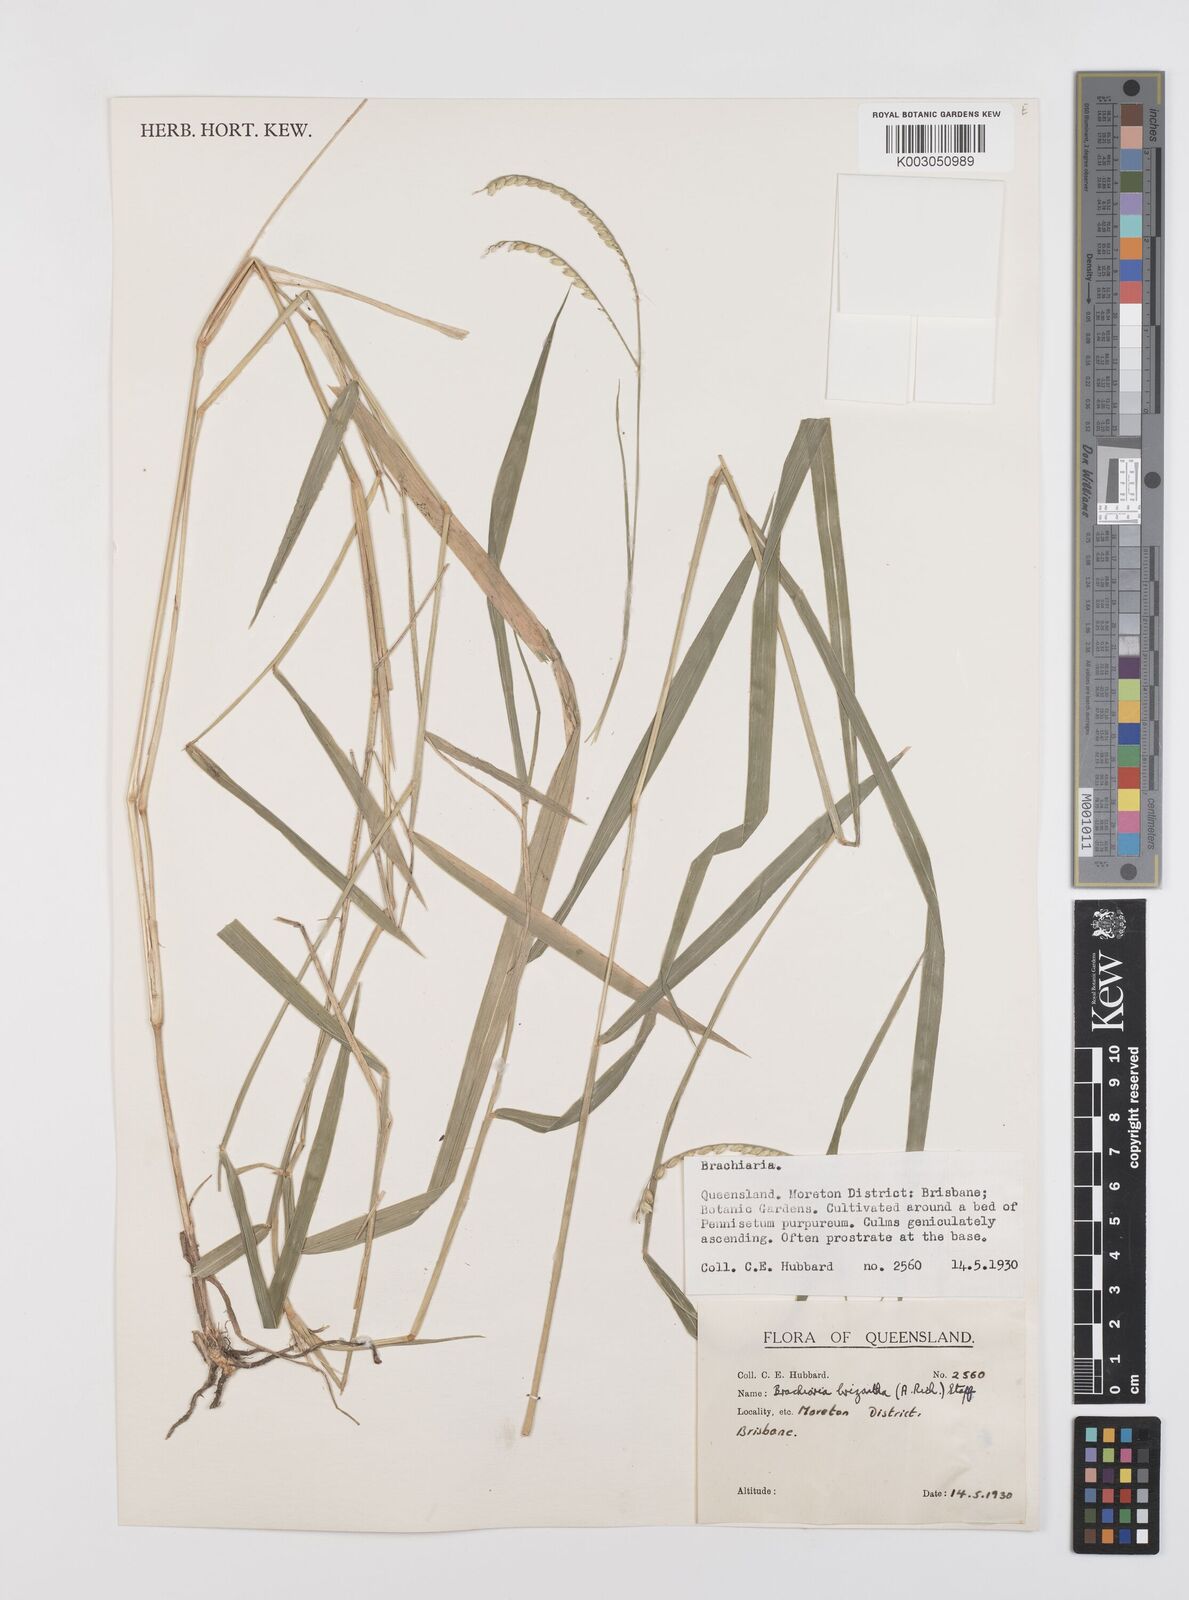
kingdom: Plantae
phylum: Tracheophyta
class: Liliopsida
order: Poales
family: Poaceae
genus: Urochloa
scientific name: Urochloa brizantha
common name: Palisade signalgrass
